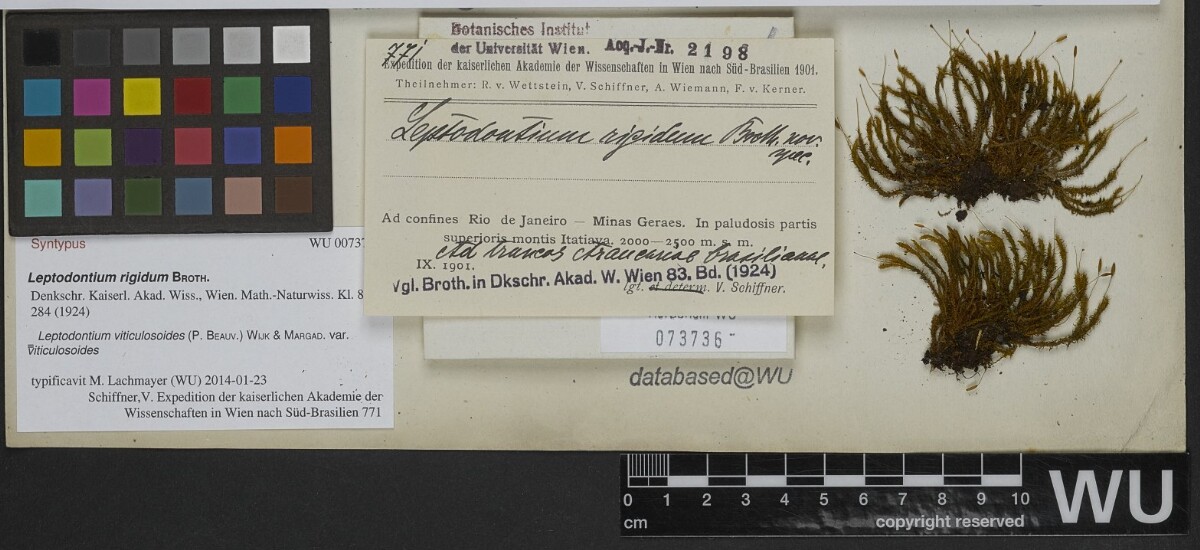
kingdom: Plantae
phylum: Bryophyta
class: Bryopsida
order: Pottiales
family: Pottiaceae
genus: Leptodontium
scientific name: Leptodontium viticulosoides
